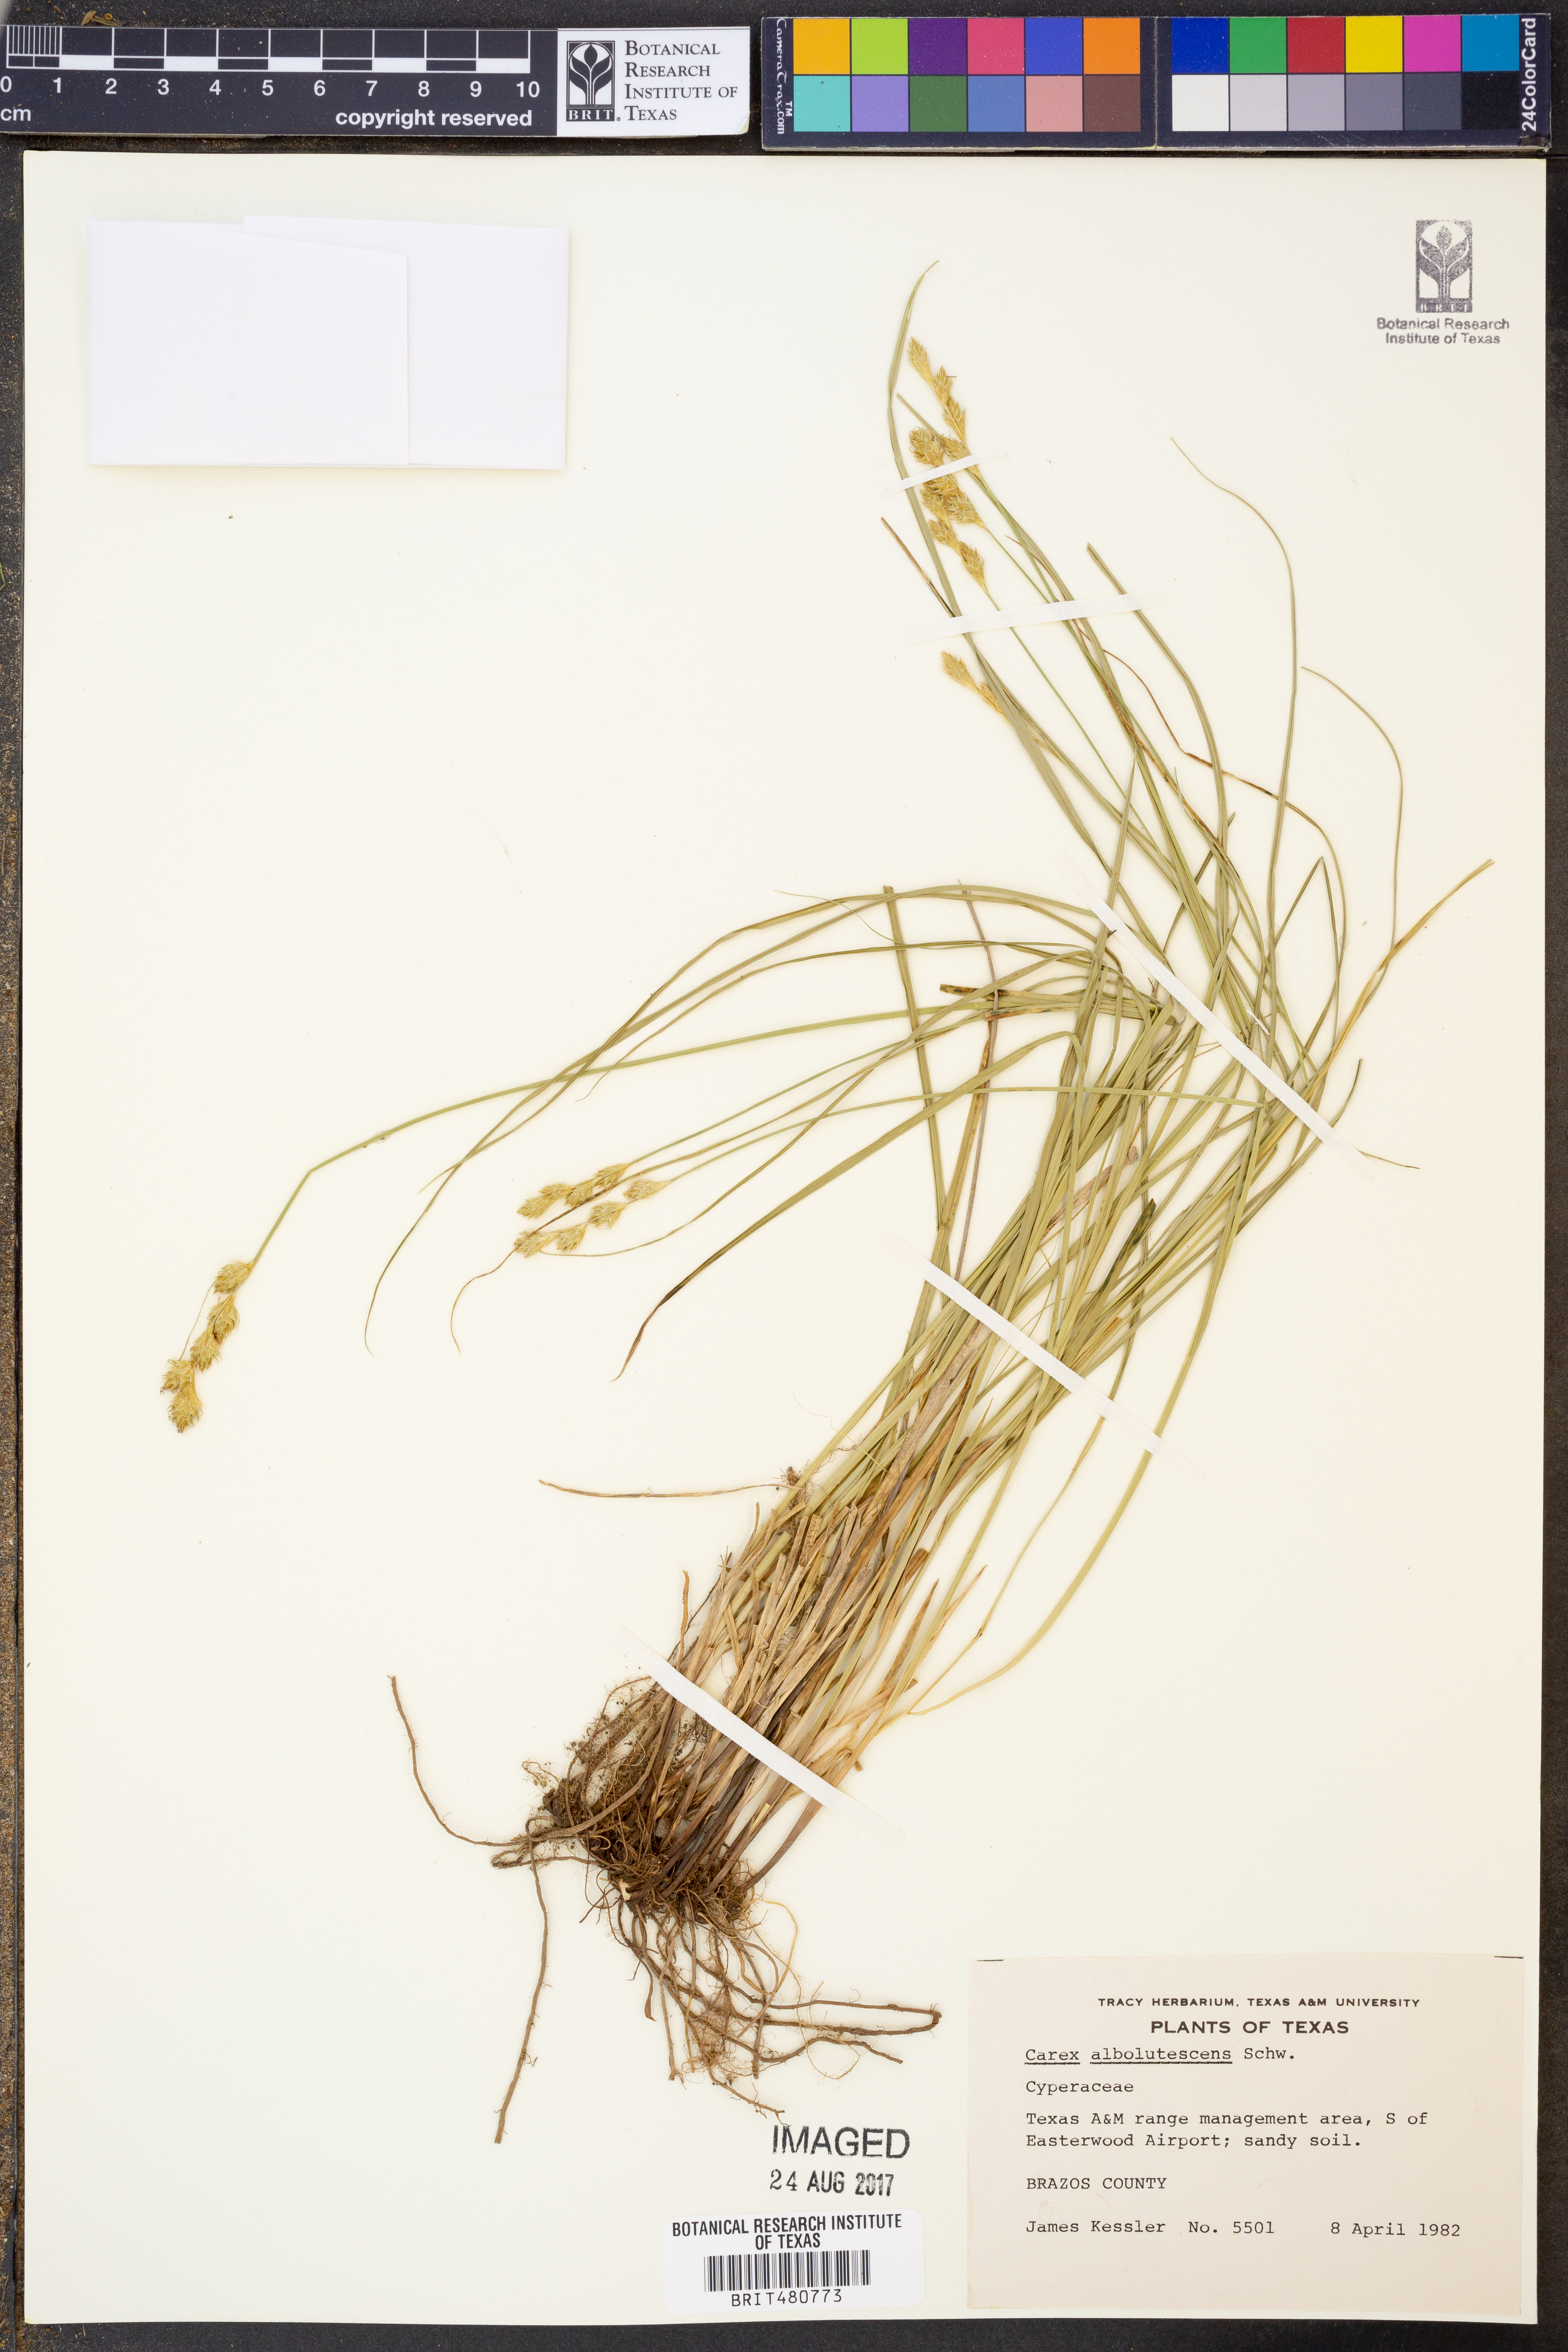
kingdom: Plantae
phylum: Tracheophyta
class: Liliopsida
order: Poales
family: Cyperaceae
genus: Carex
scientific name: Carex albolutescens
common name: Freenish white sedge
